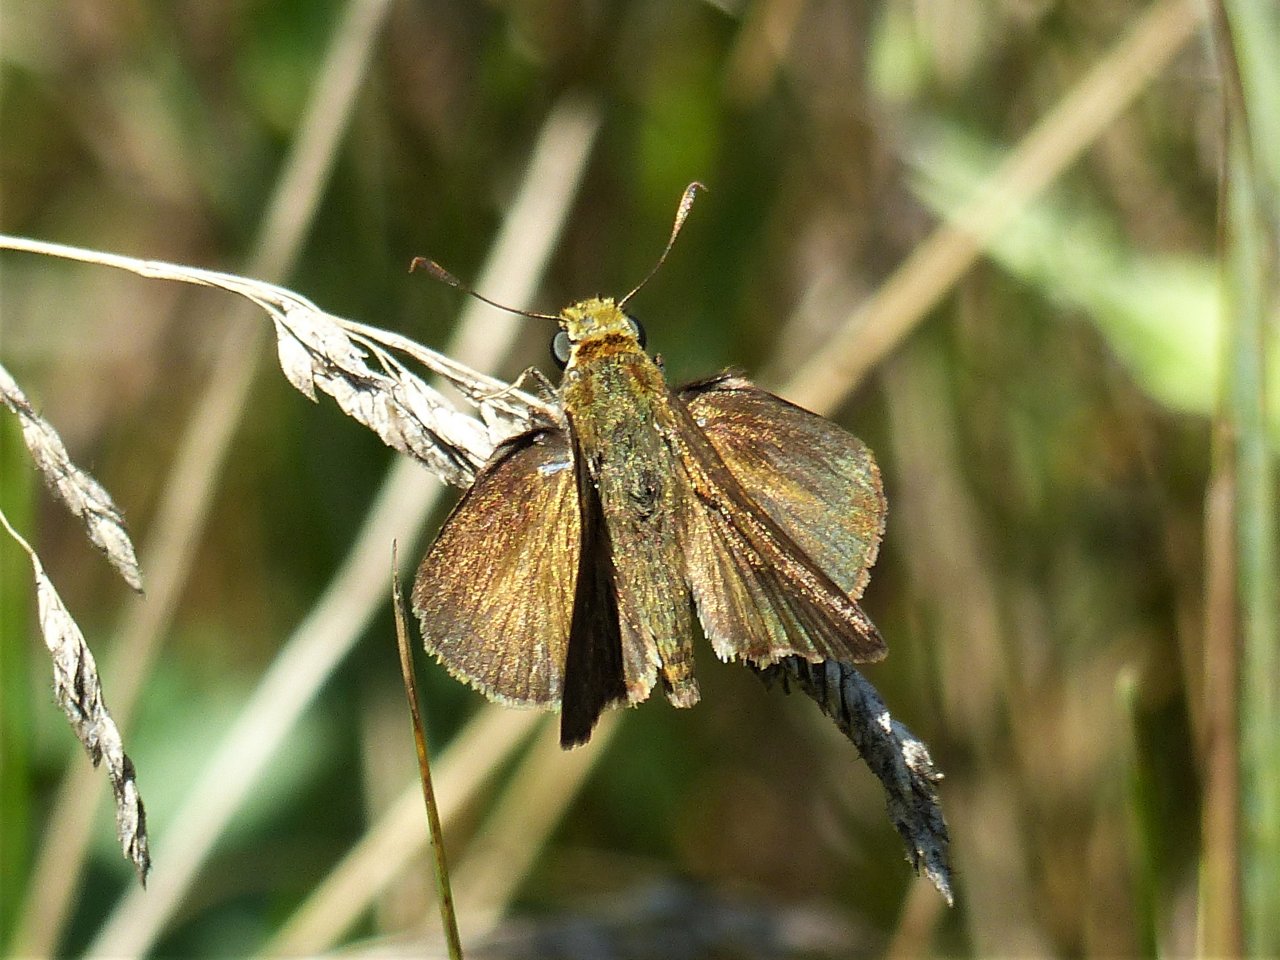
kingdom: Animalia
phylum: Arthropoda
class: Insecta
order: Lepidoptera
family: Hesperiidae
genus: Euphyes
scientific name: Euphyes vestris
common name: Dun Skipper
